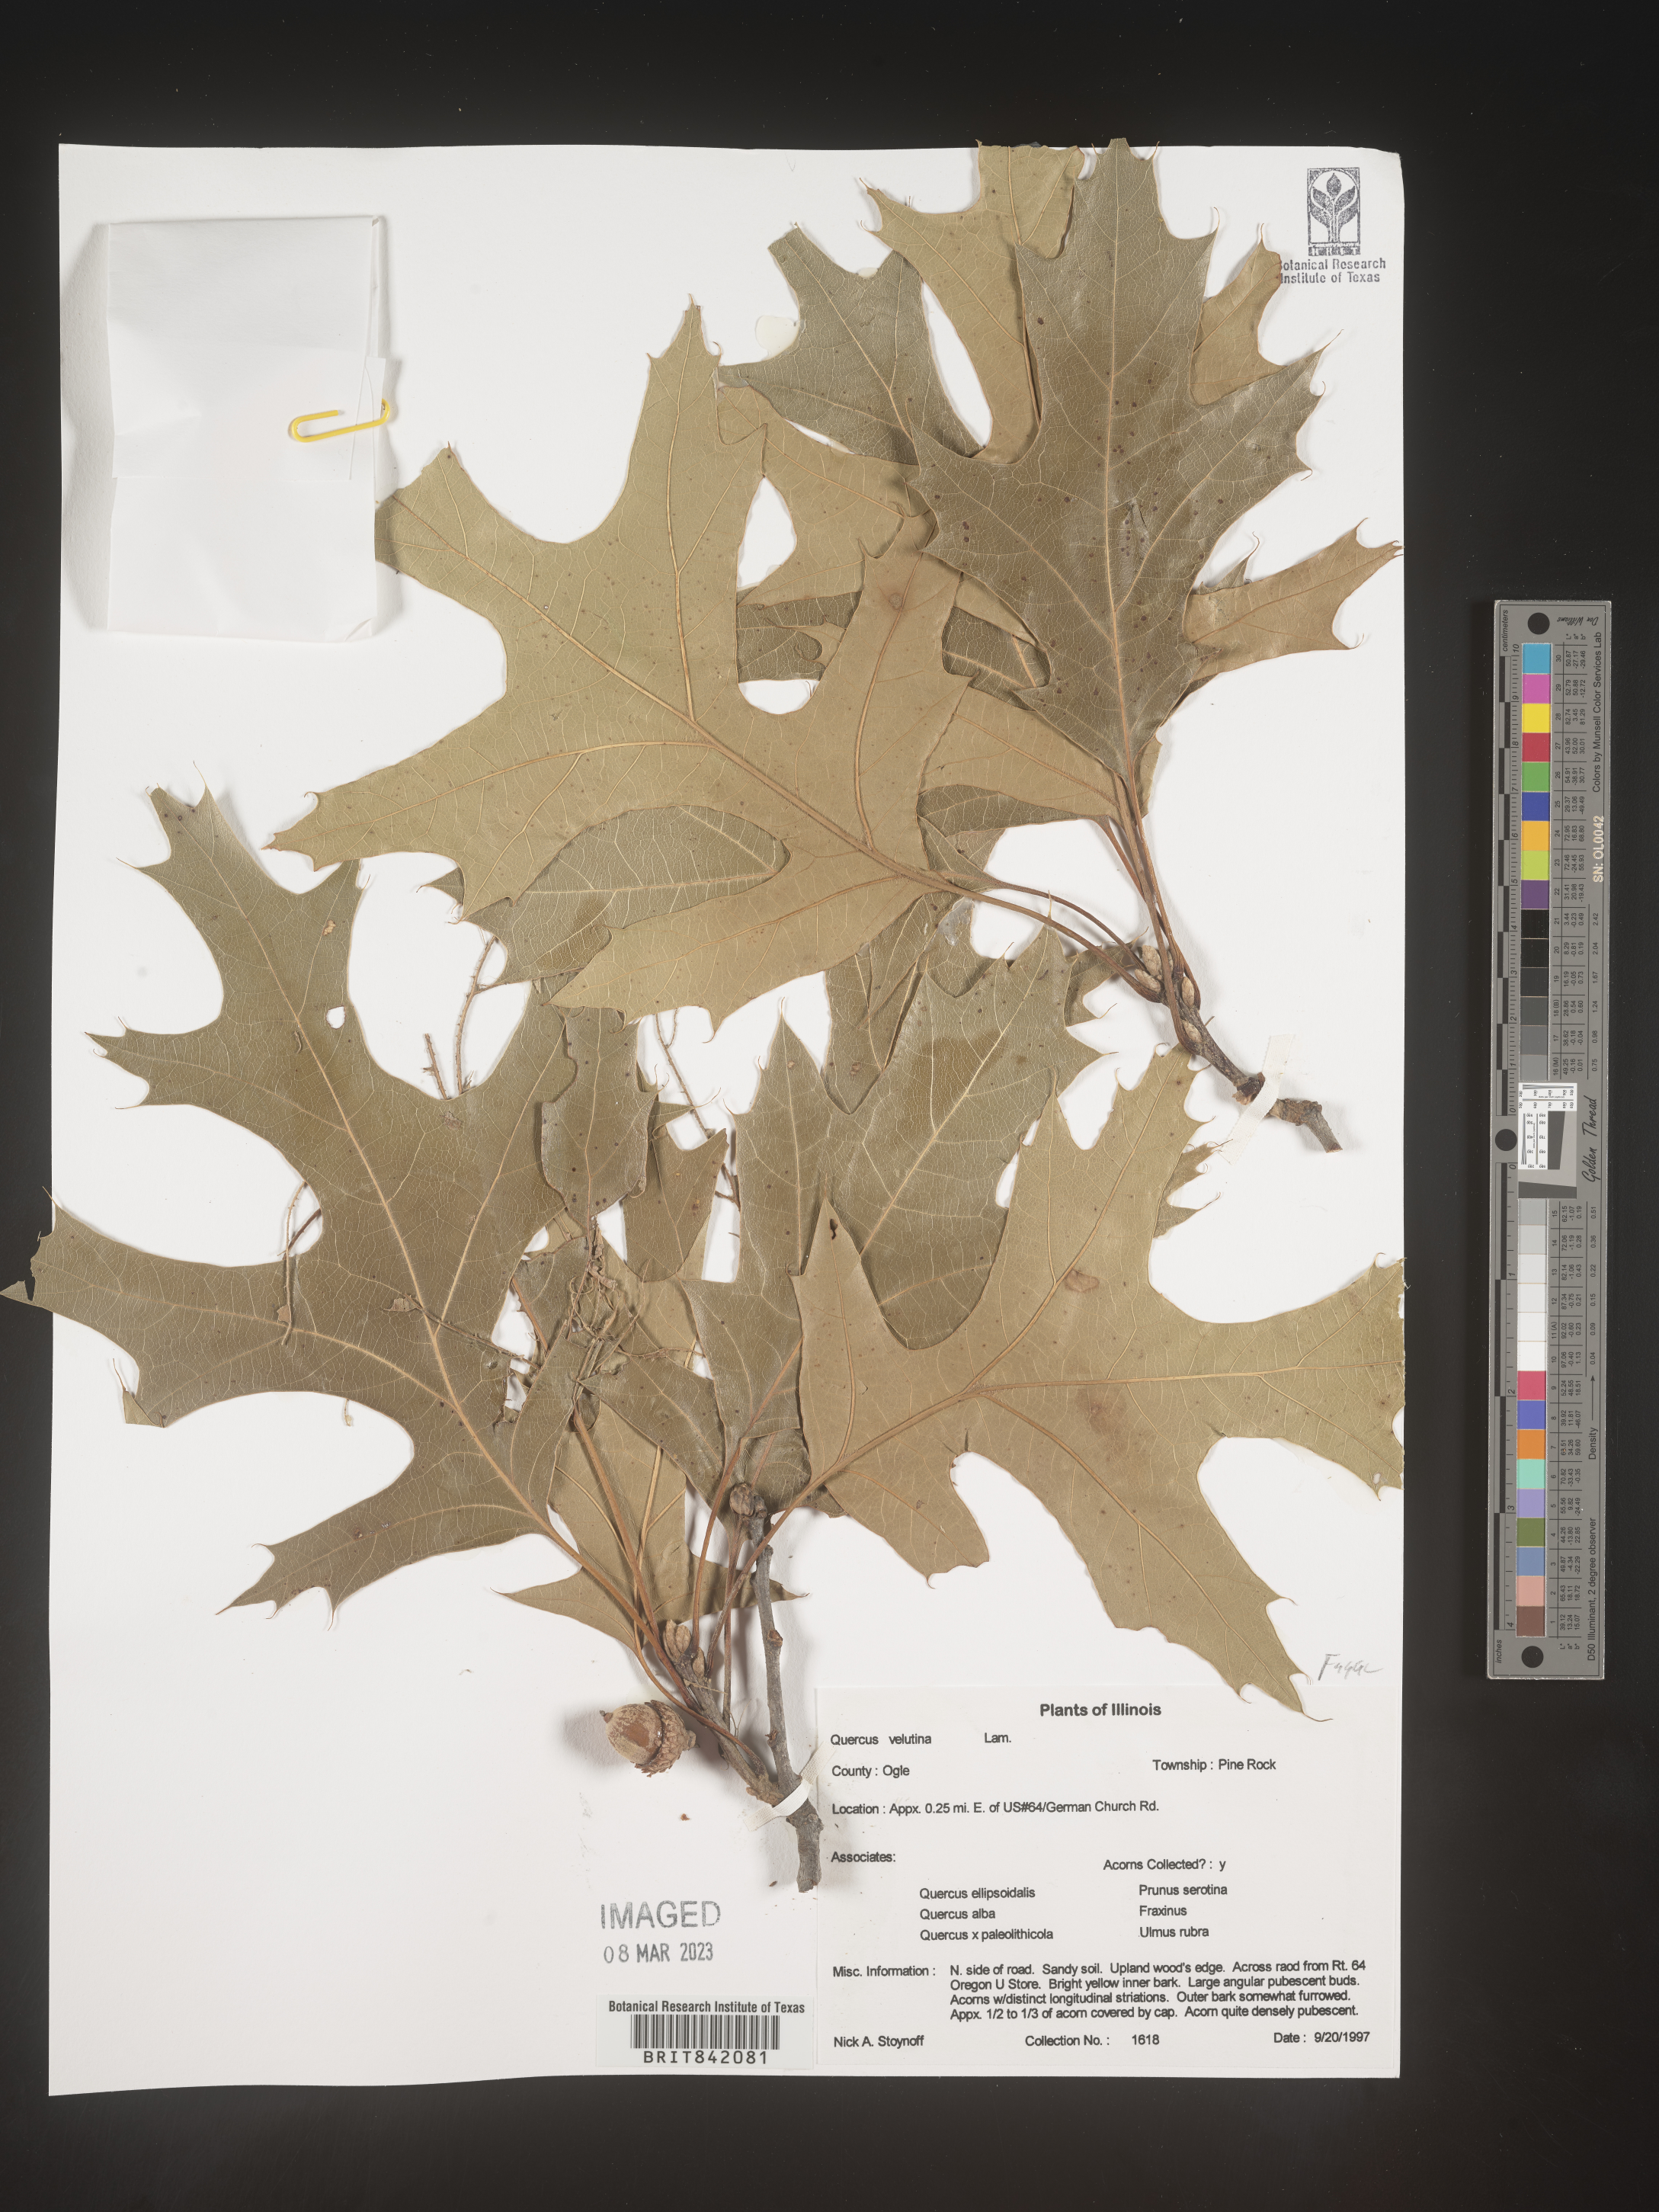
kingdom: Plantae
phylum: Tracheophyta
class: Magnoliopsida
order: Fagales
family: Fagaceae
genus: Quercus
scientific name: Quercus velutina
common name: Black oak
